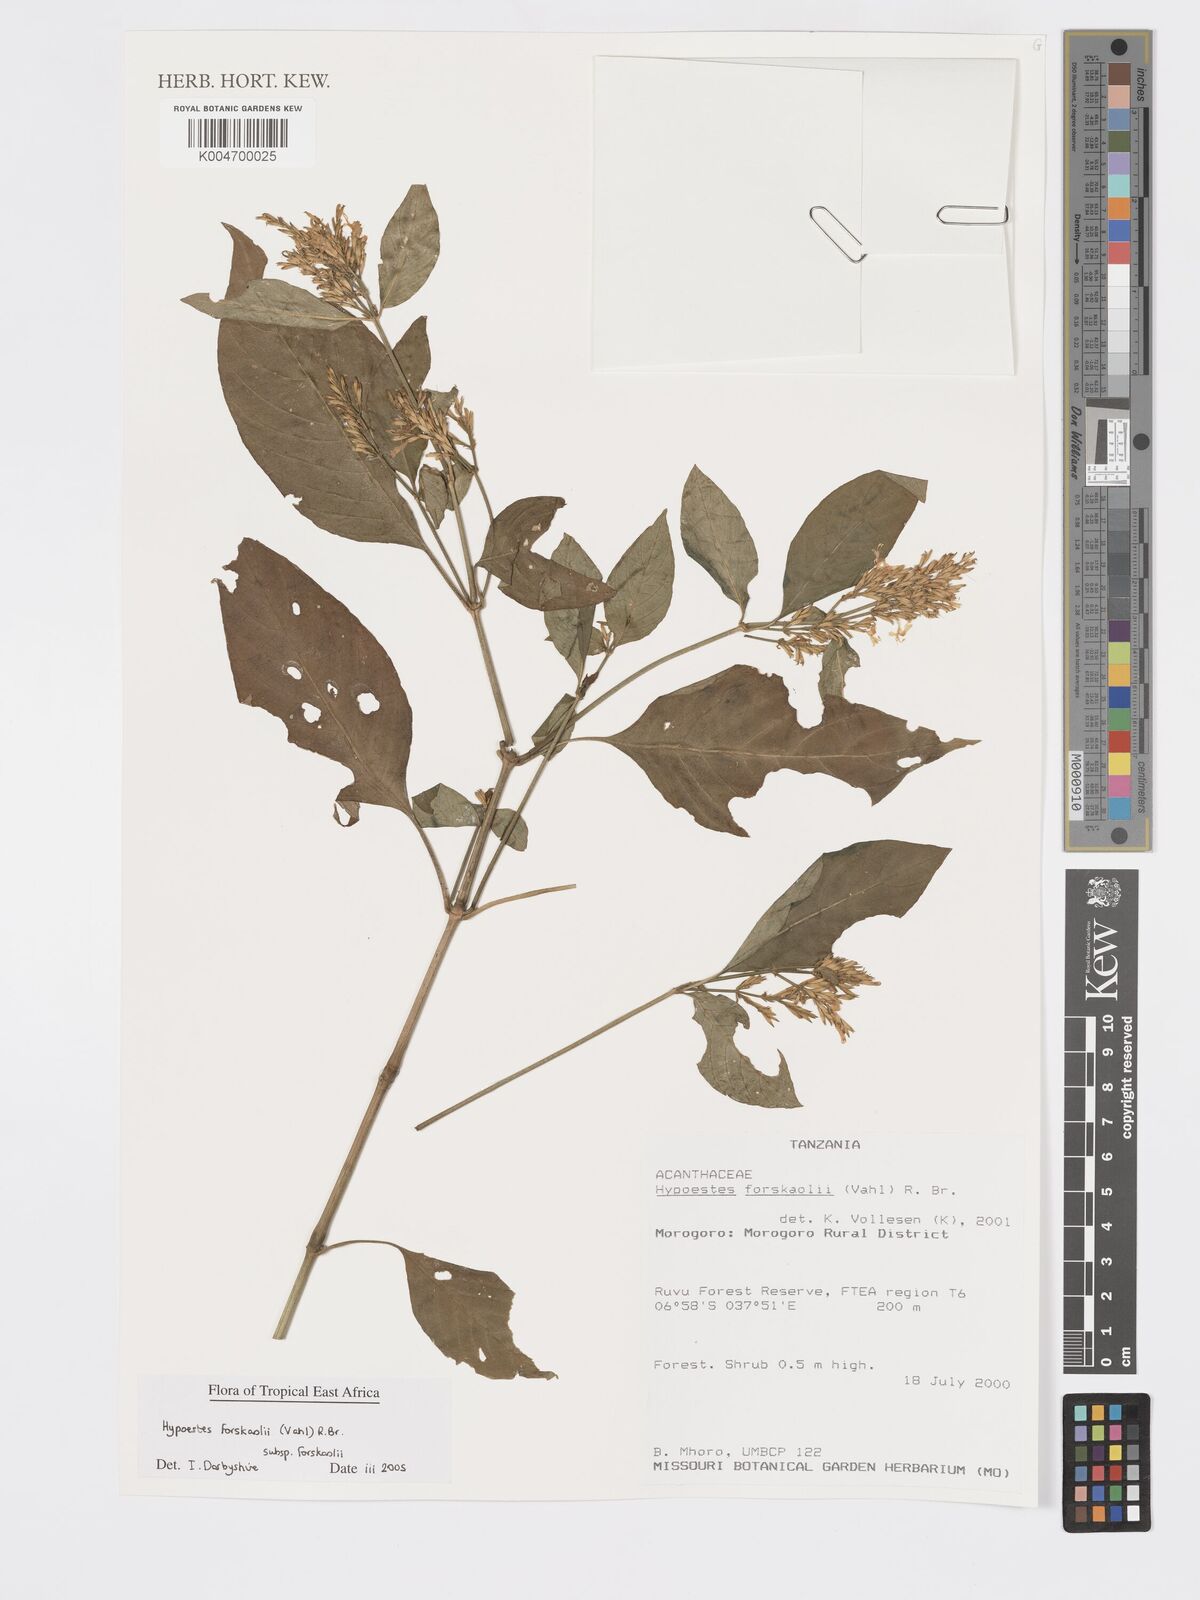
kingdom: Plantae
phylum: Tracheophyta
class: Magnoliopsida
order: Lamiales
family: Acanthaceae
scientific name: Acanthaceae
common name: Acanthaceae
